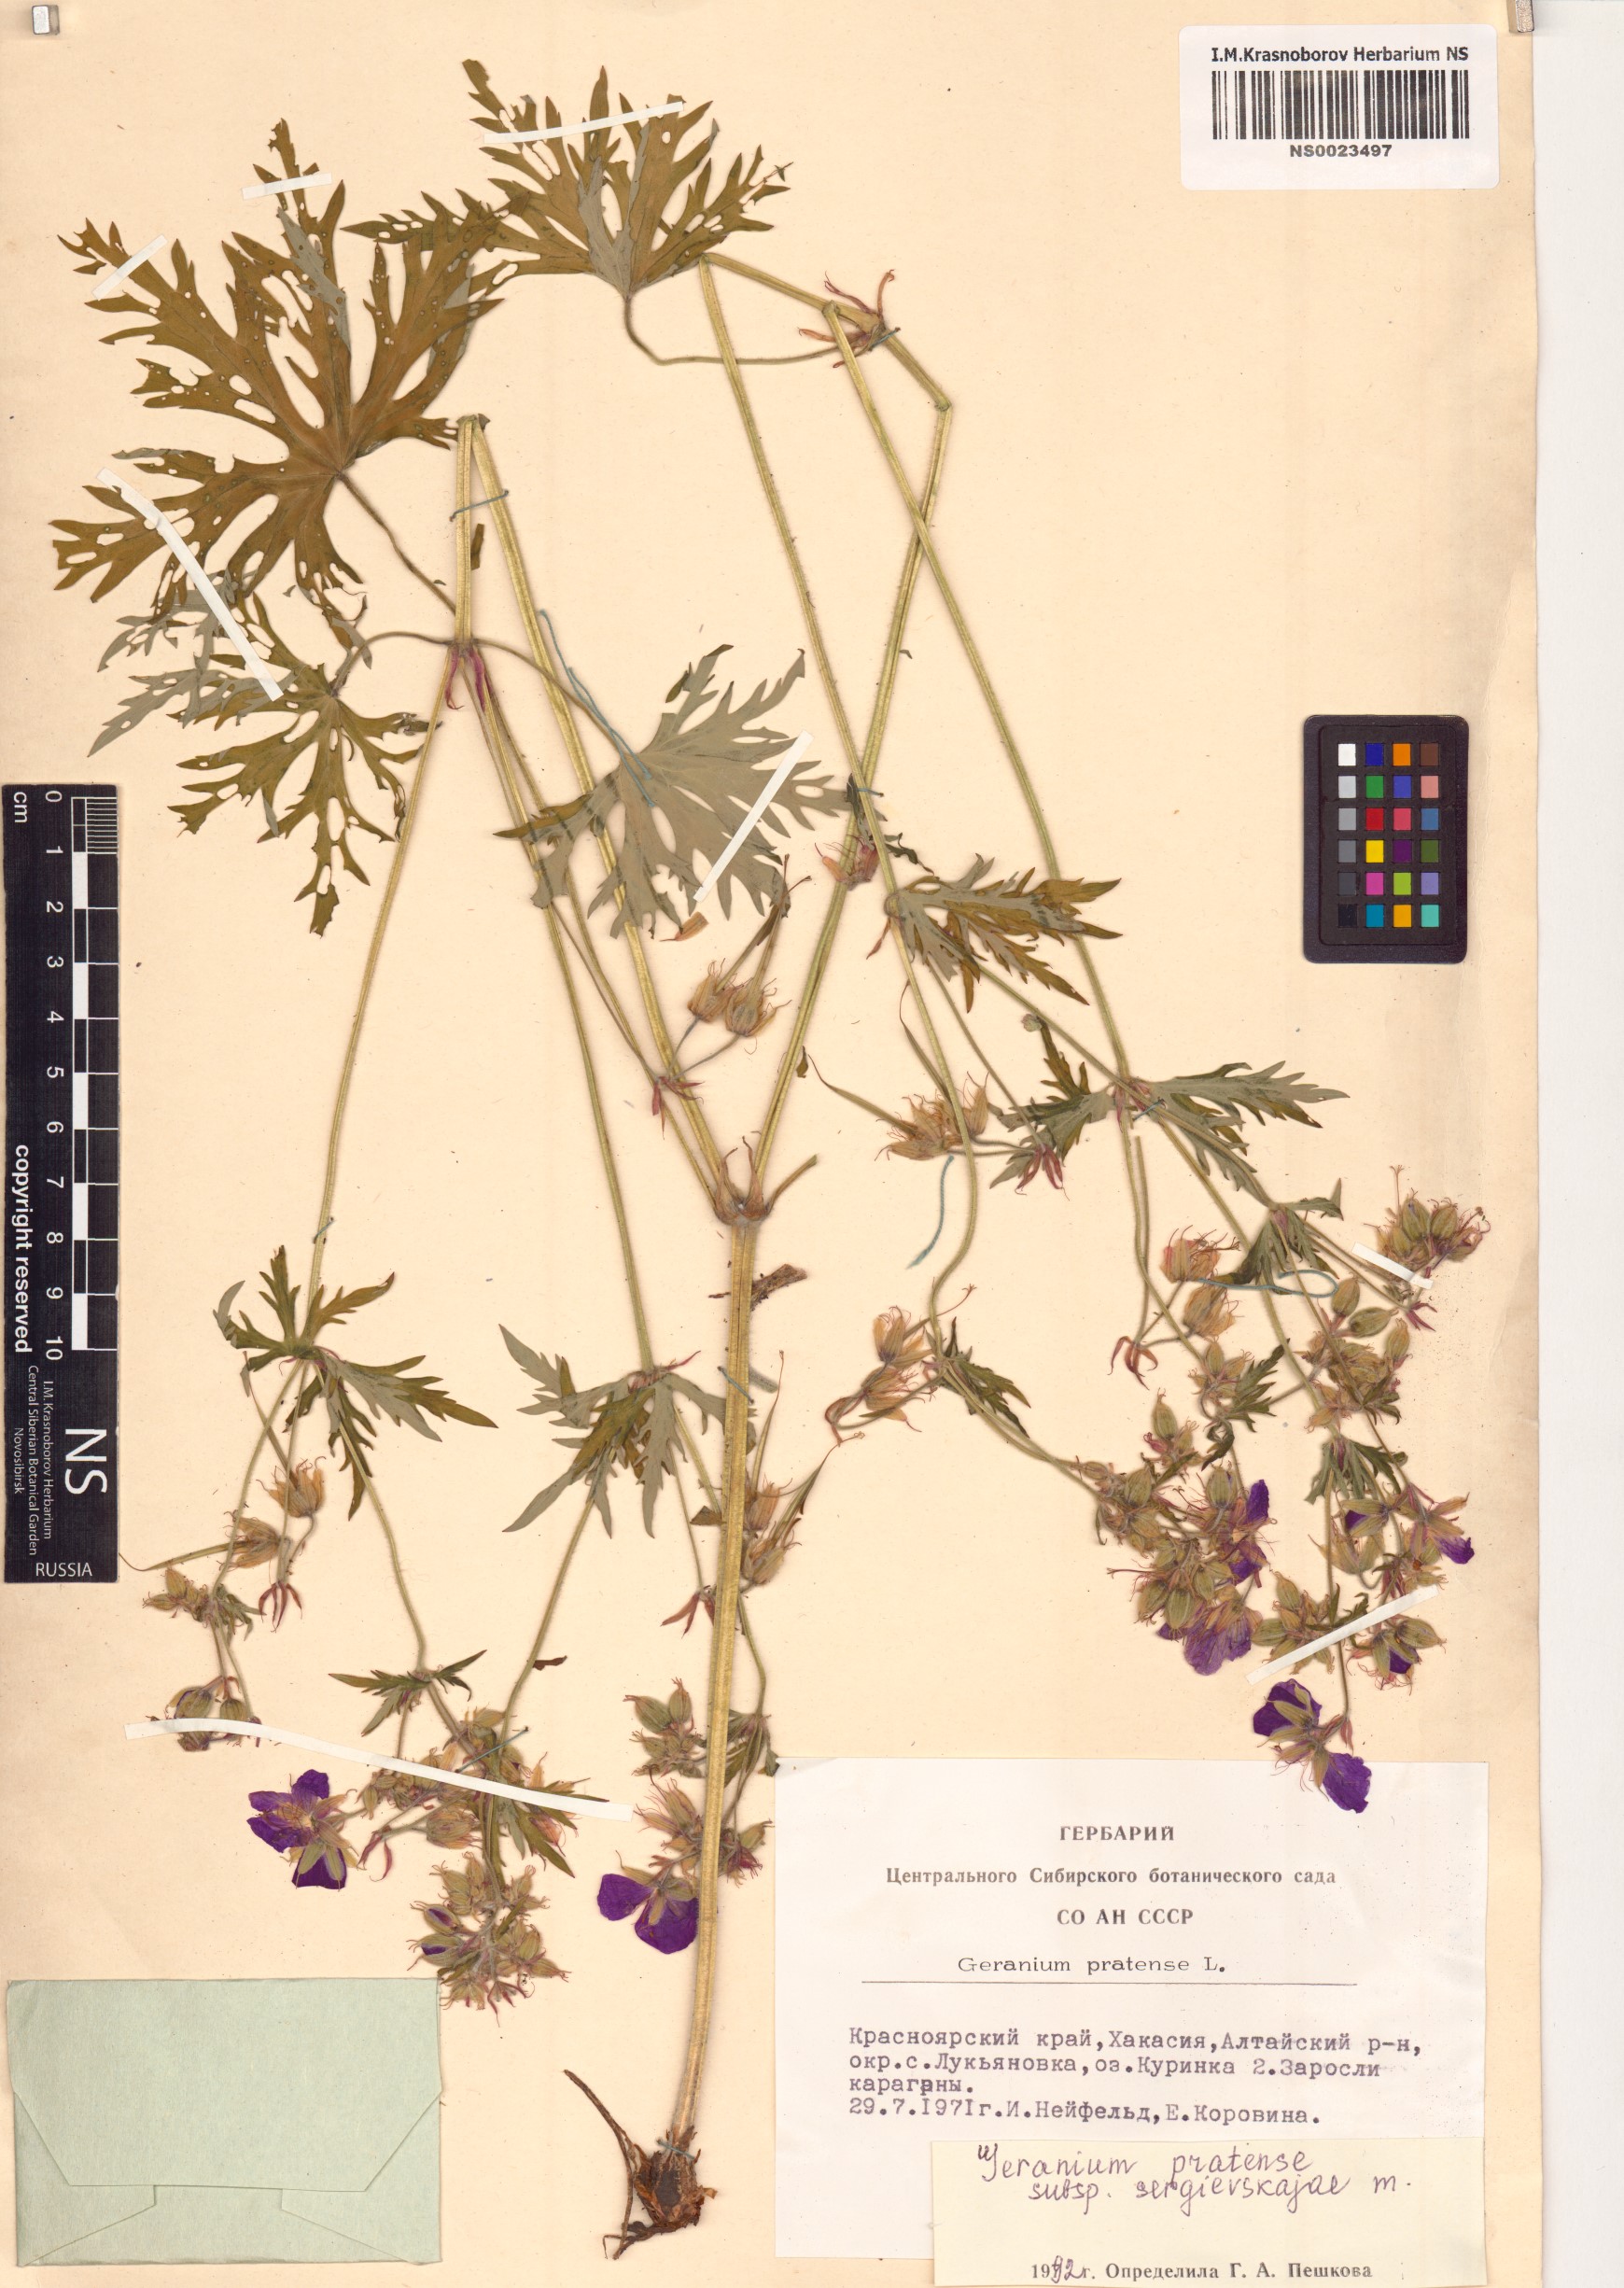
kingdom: Plantae
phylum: Tracheophyta
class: Magnoliopsida
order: Geraniales
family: Geraniaceae
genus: Geranium
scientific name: Geranium pratense
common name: Meadow crane's-bill
